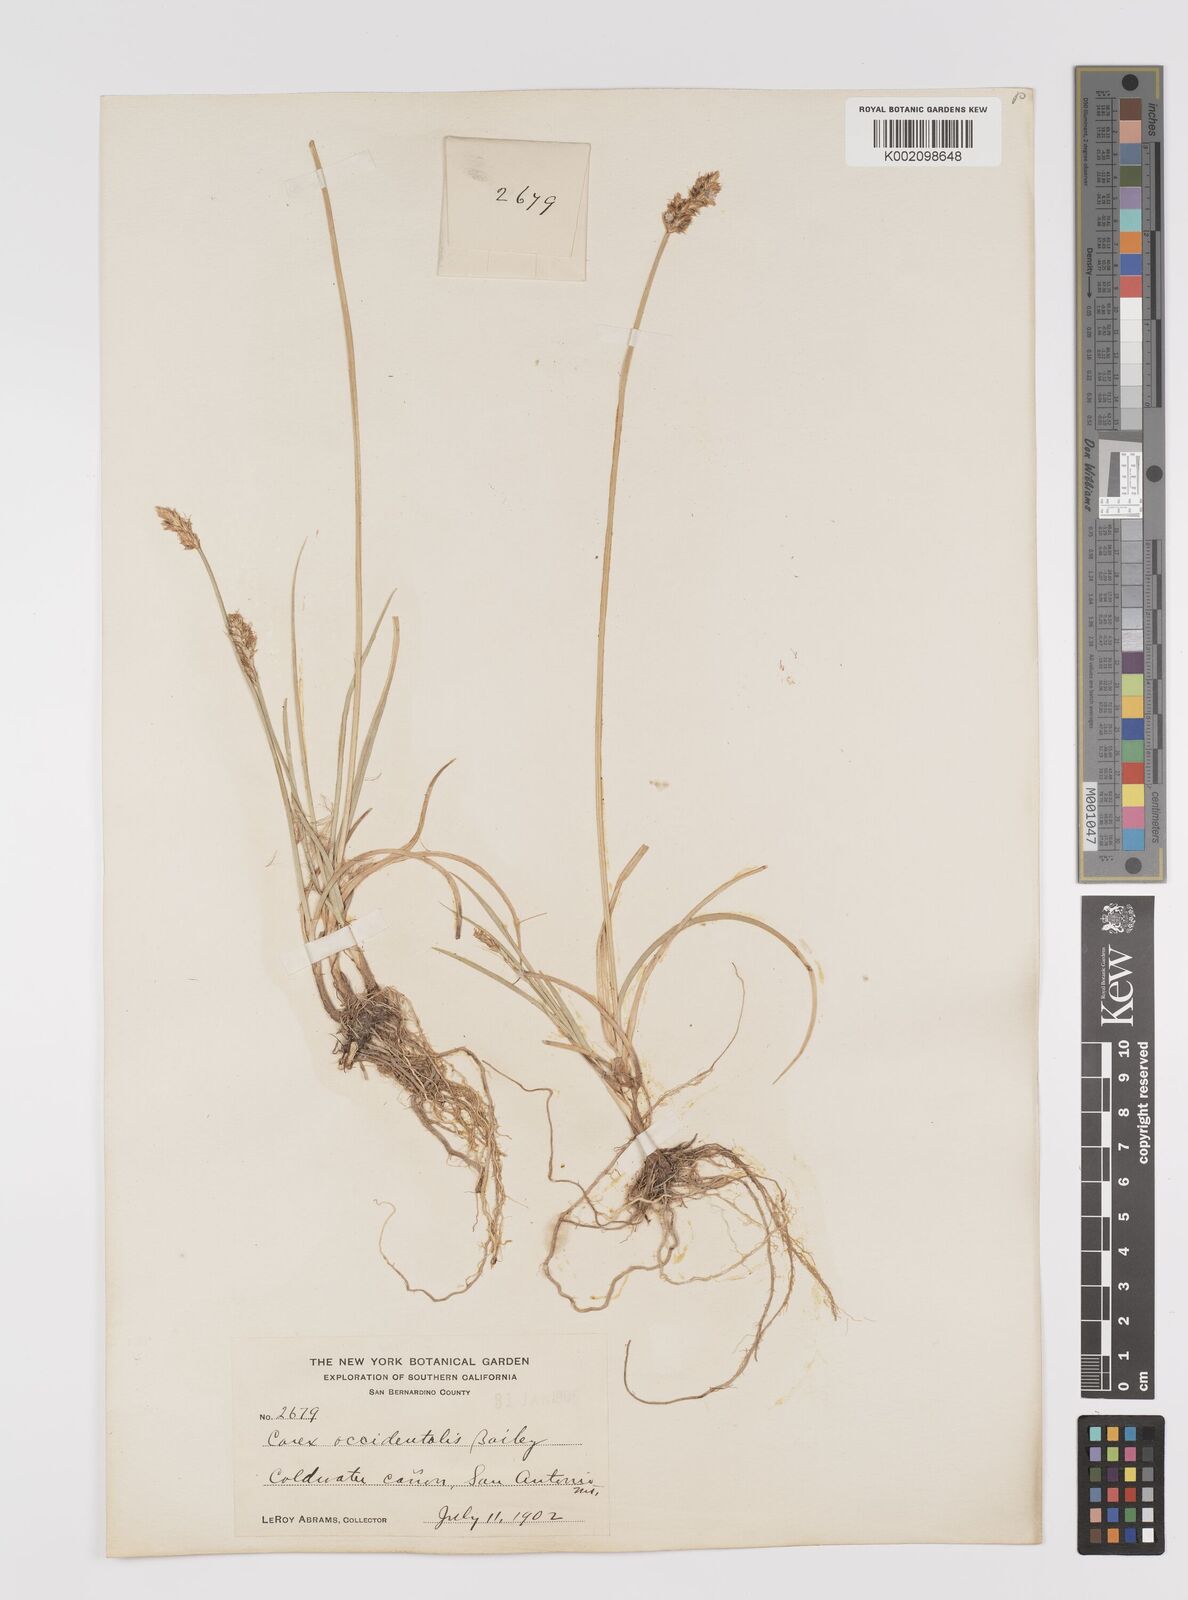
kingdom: Plantae
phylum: Tracheophyta
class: Liliopsida
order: Poales
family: Cyperaceae
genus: Carex
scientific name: Carex occidentalis
